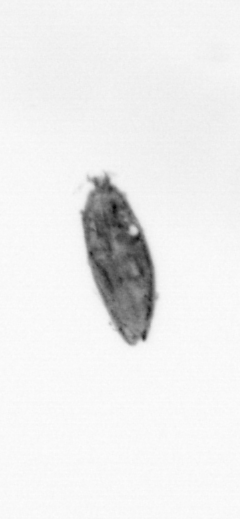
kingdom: Animalia
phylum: Arthropoda
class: Maxillopoda
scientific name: Maxillopoda
